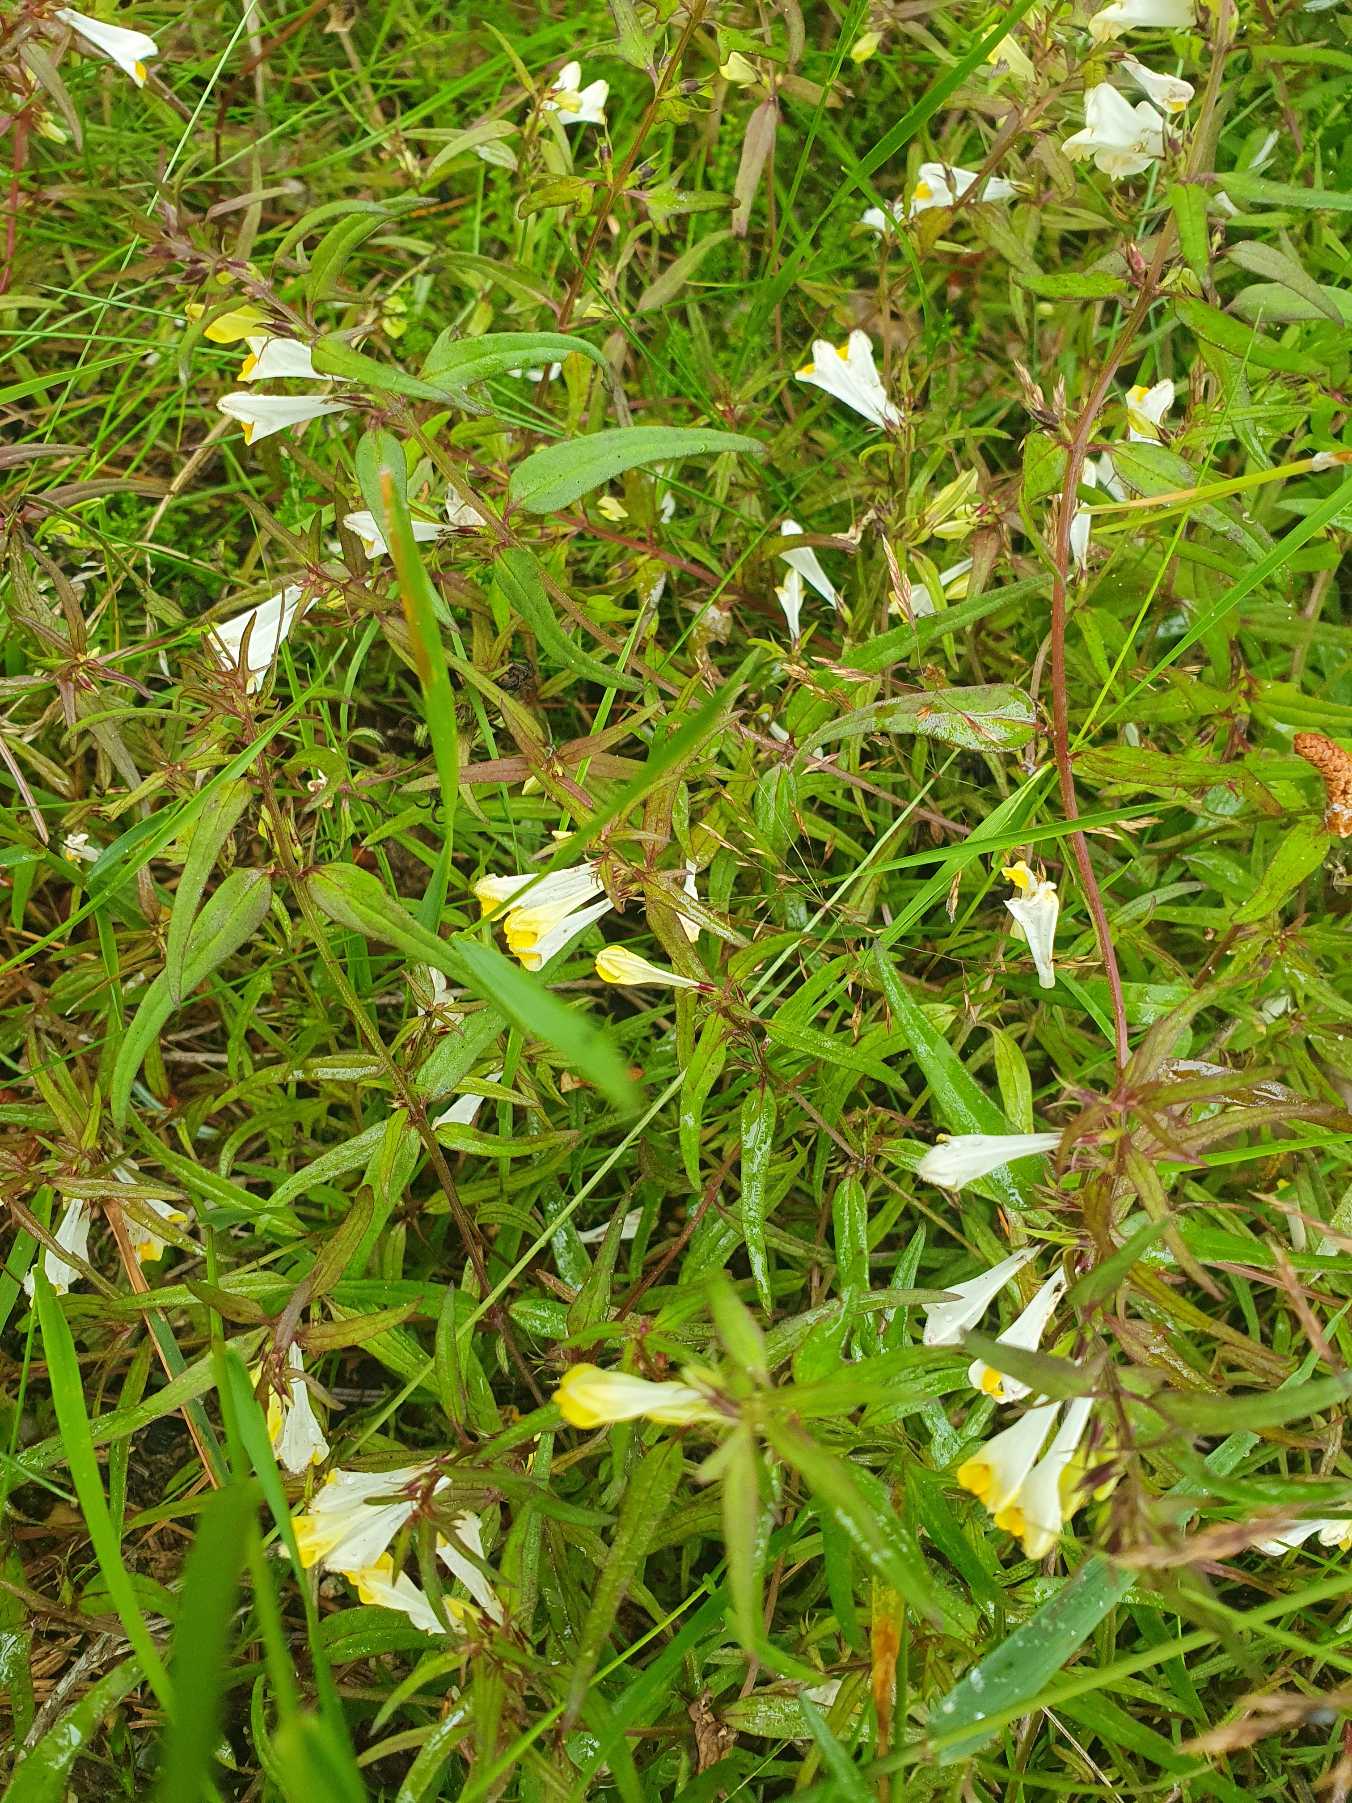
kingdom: Plantae
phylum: Tracheophyta
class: Magnoliopsida
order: Lamiales
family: Orobanchaceae
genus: Melampyrum
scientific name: Melampyrum pratense
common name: Almindelig kohvede
